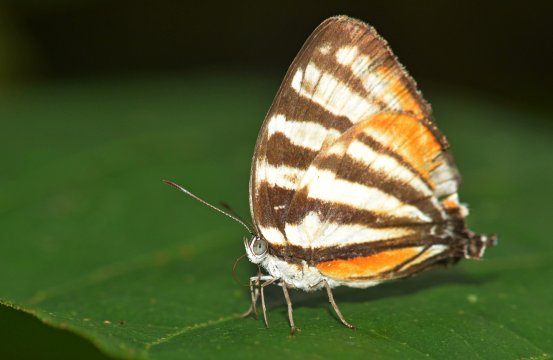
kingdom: Animalia
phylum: Arthropoda
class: Insecta
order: Lepidoptera
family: Lycaenidae
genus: Arawacus
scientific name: Arawacus togarna
